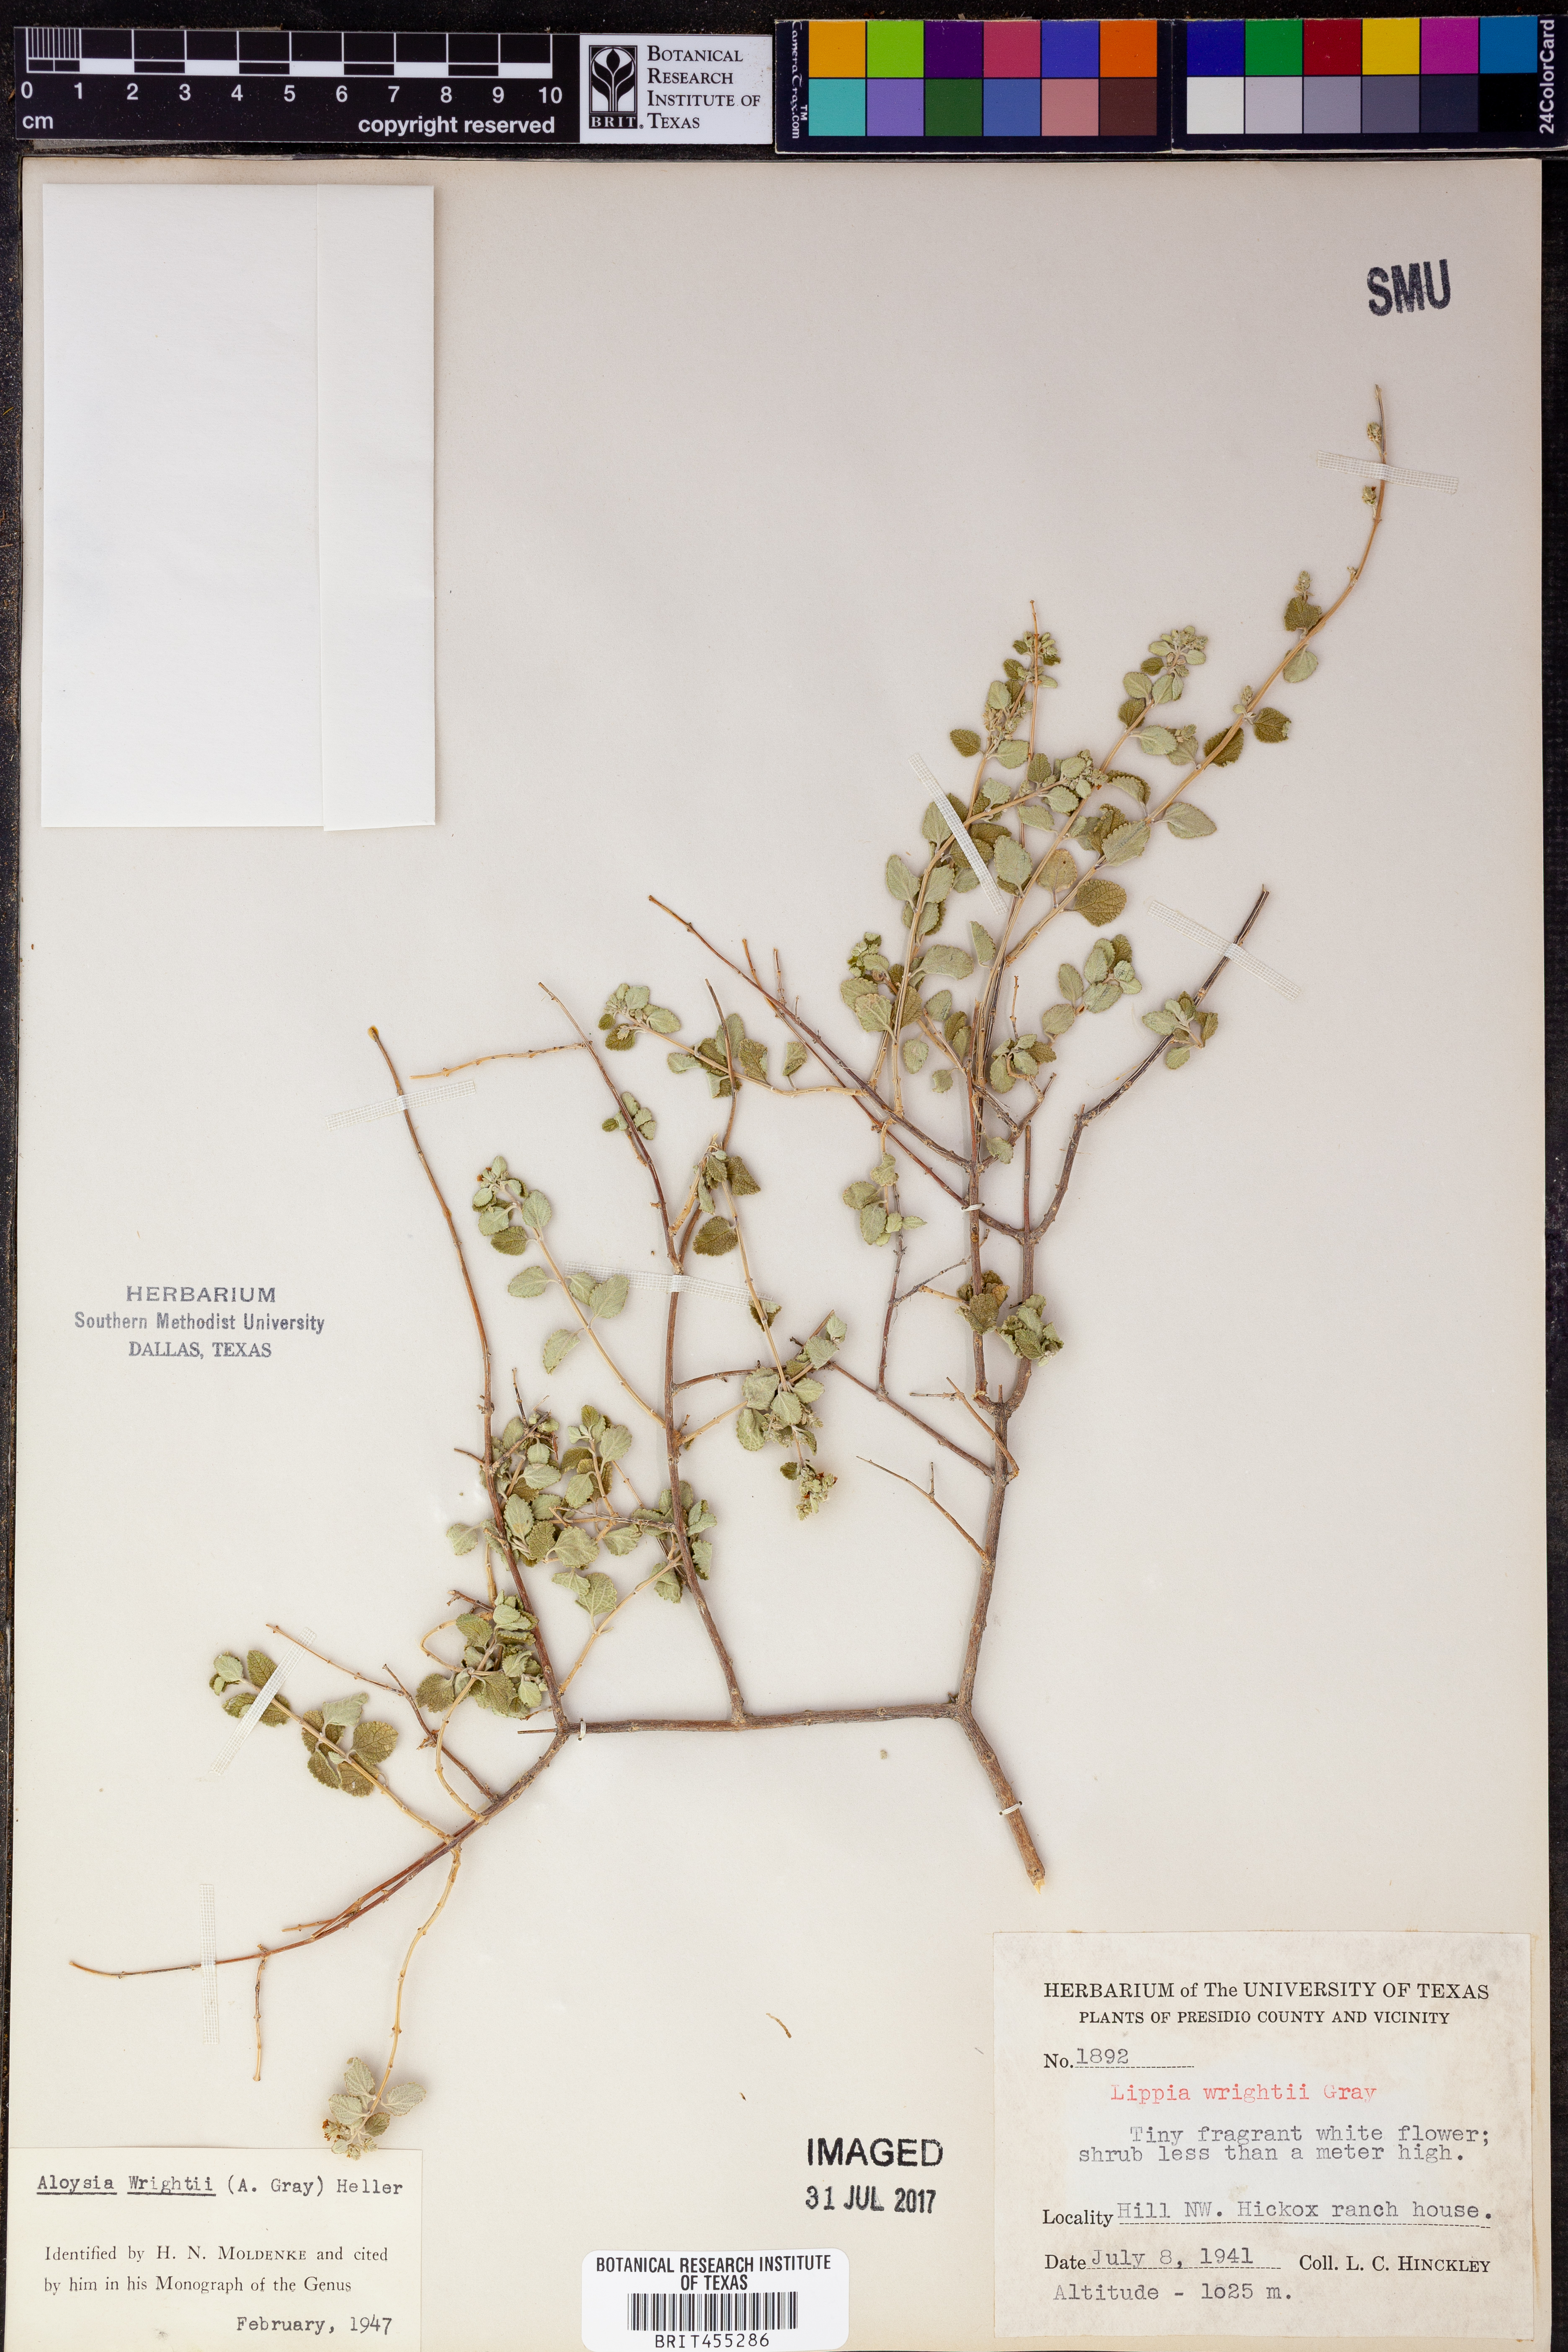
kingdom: Plantae
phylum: Tracheophyta
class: Magnoliopsida
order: Lamiales
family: Verbenaceae
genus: Aloysia
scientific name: Aloysia wrightii
